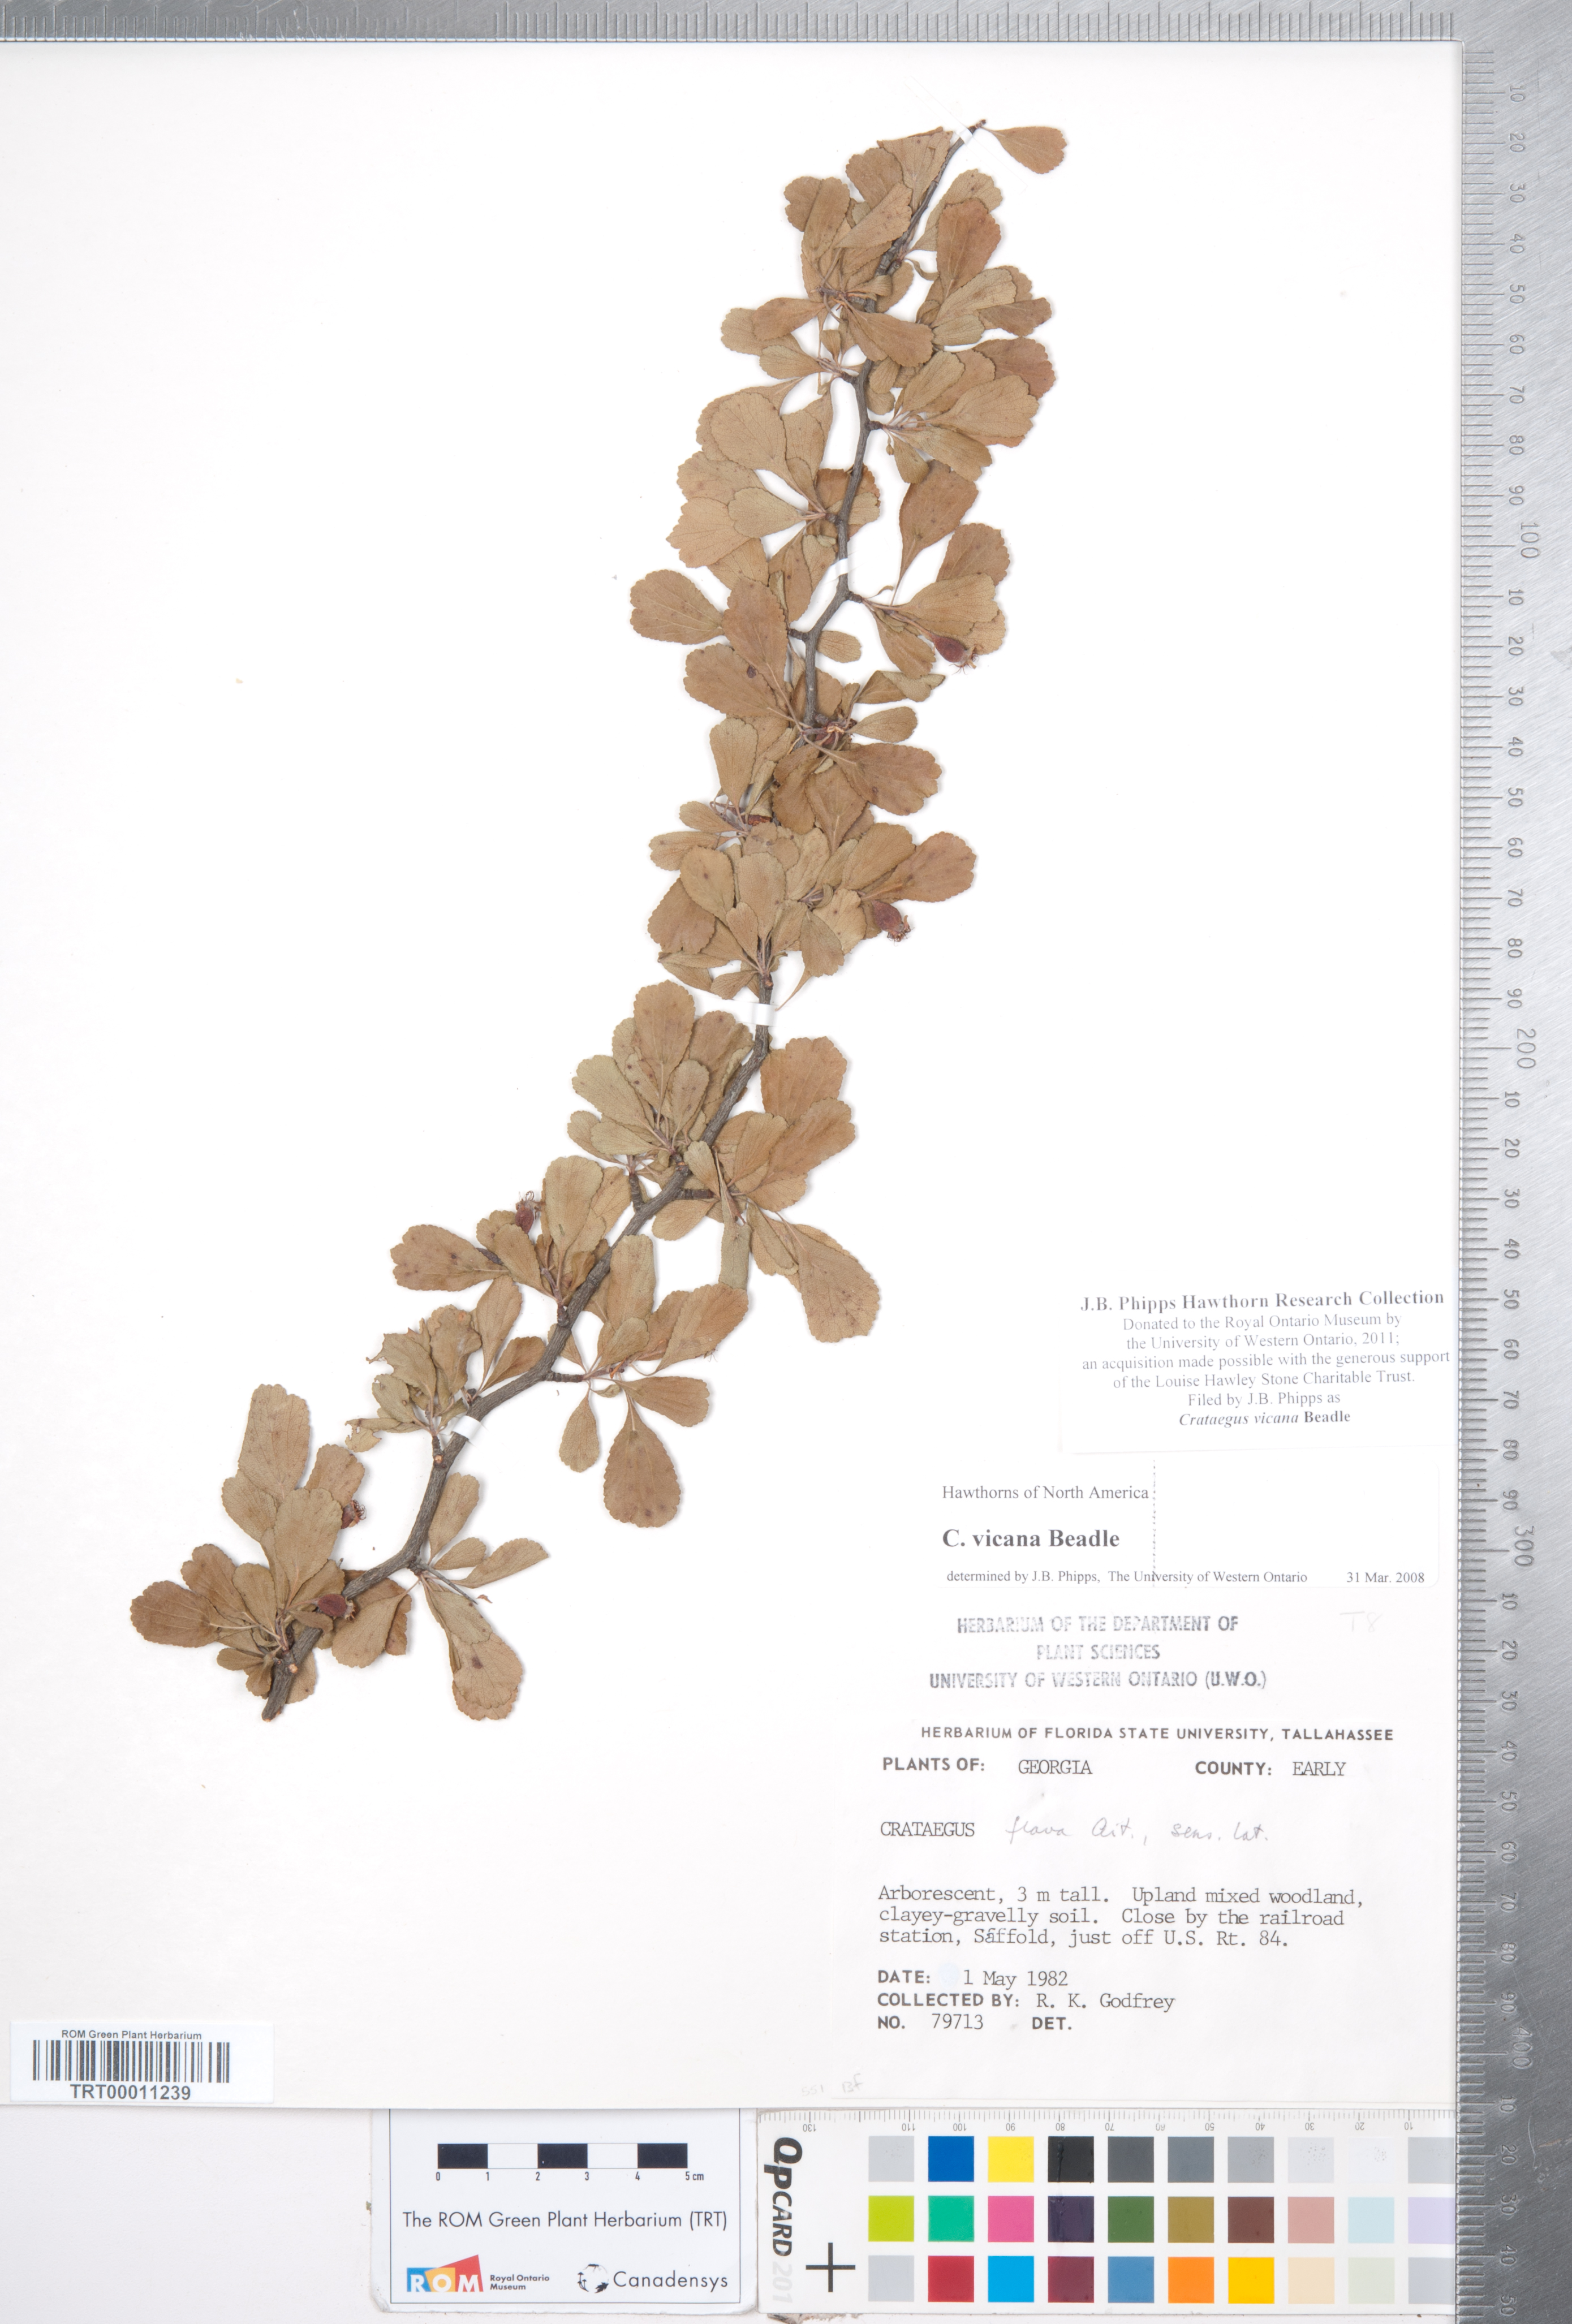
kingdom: Plantae
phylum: Tracheophyta
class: Magnoliopsida
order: Rosales
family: Rosaceae
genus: Crataegus
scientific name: Crataegus lassa
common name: Florida hawthorn
